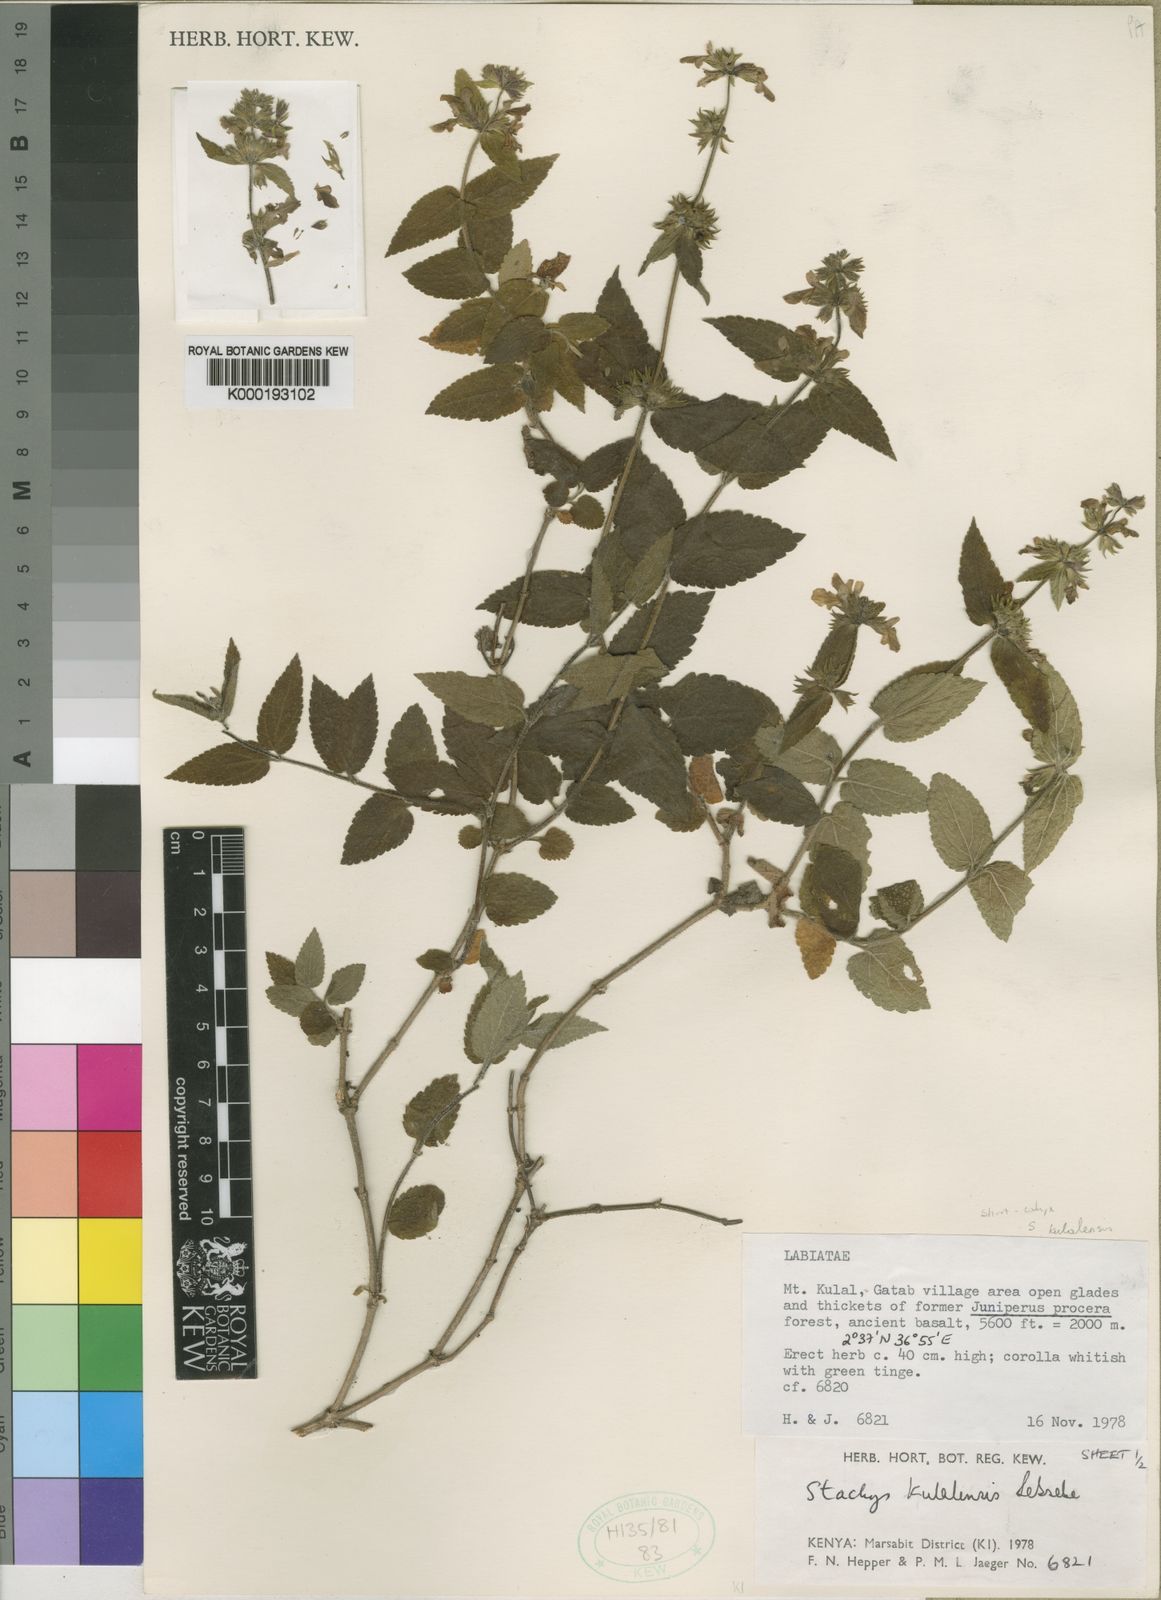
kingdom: Plantae
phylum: Tracheophyta
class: Magnoliopsida
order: Lamiales
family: Lamiaceae
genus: Stachys
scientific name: Stachys kulalensis
